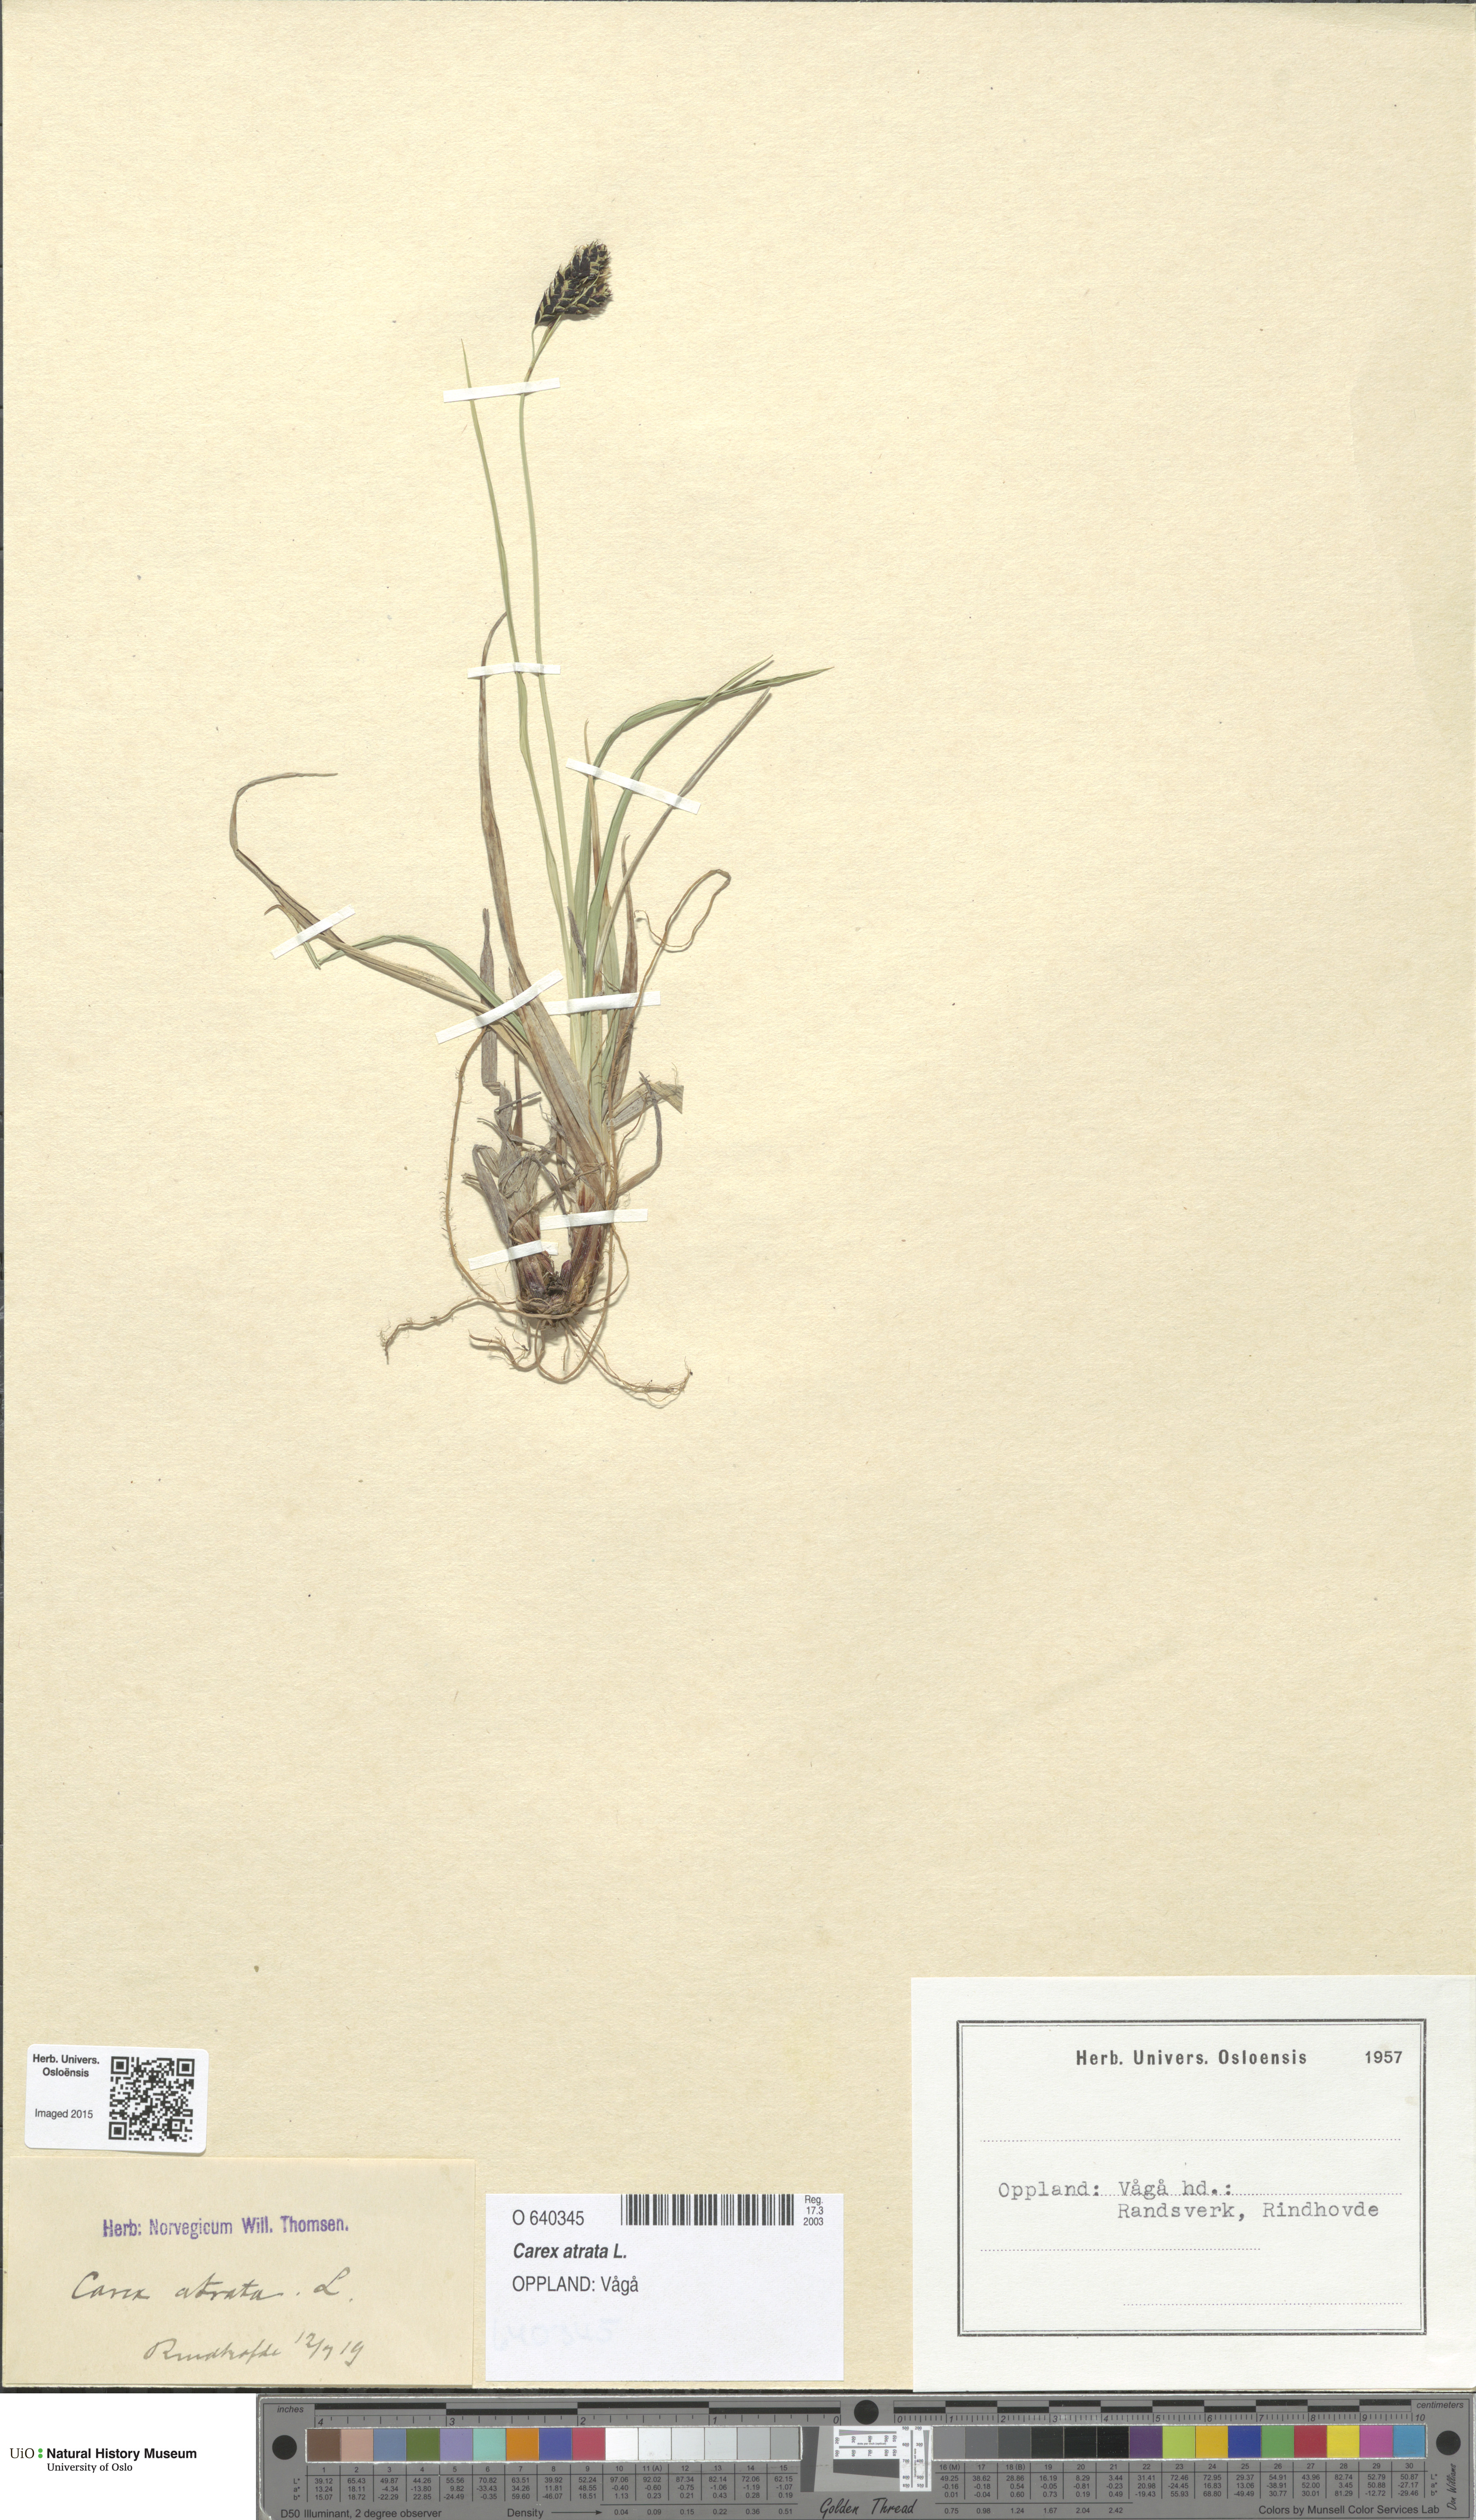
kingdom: Plantae
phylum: Tracheophyta
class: Liliopsida
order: Poales
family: Cyperaceae
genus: Carex
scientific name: Carex atrata
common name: Black alpine sedge
